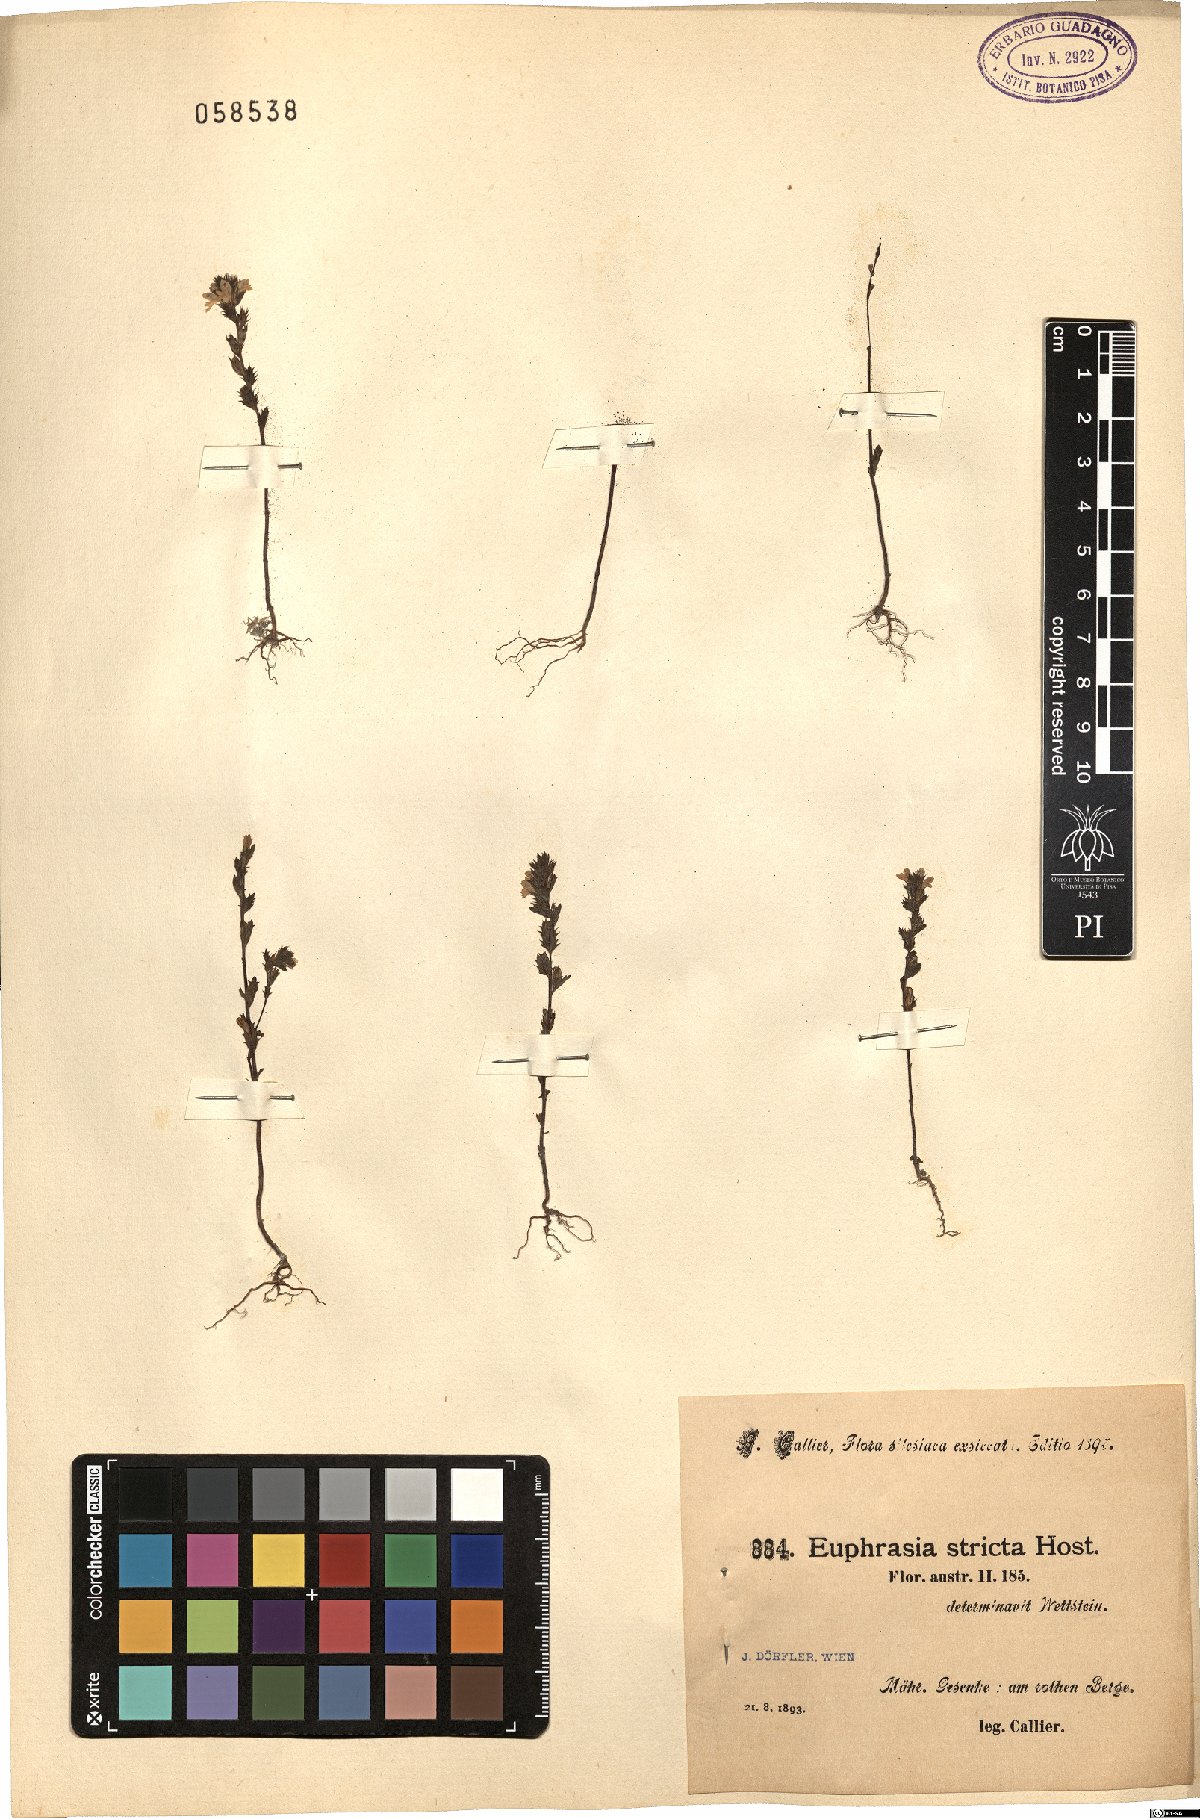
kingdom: Plantae
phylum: Tracheophyta
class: Magnoliopsida
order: Lamiales
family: Orobanchaceae
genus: Euphrasia
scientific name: Euphrasia stricta
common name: Drug eyebright
